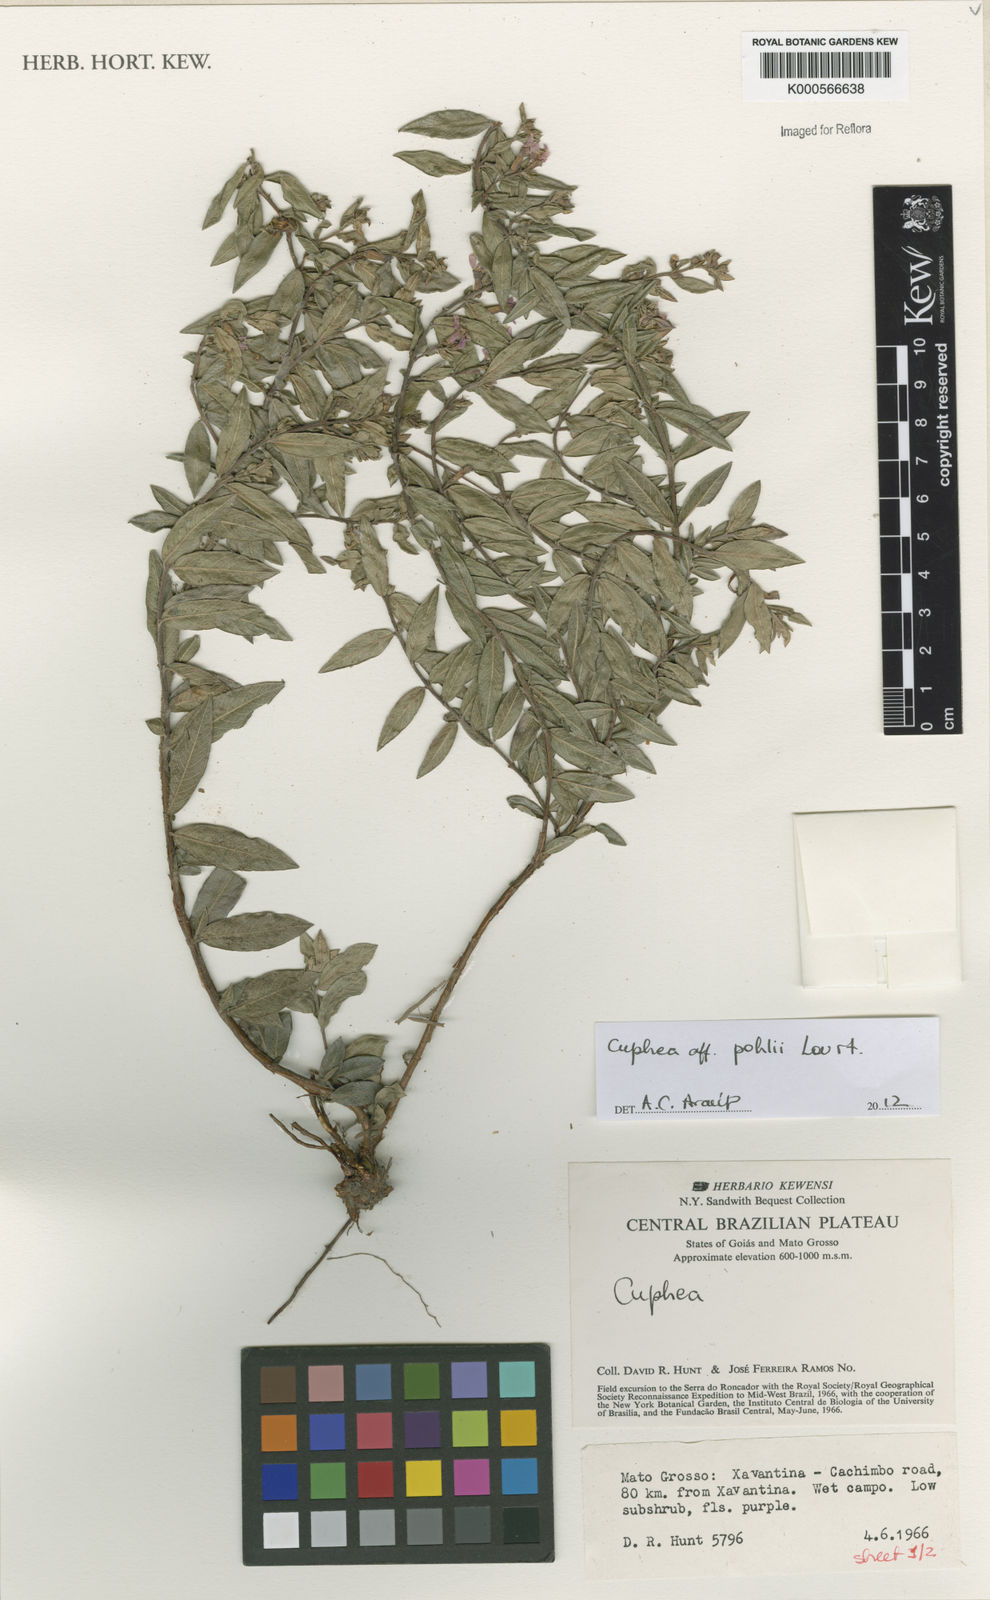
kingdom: Plantae
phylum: Tracheophyta
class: Magnoliopsida
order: Myrtales
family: Lythraceae
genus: Cuphea
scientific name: Cuphea
